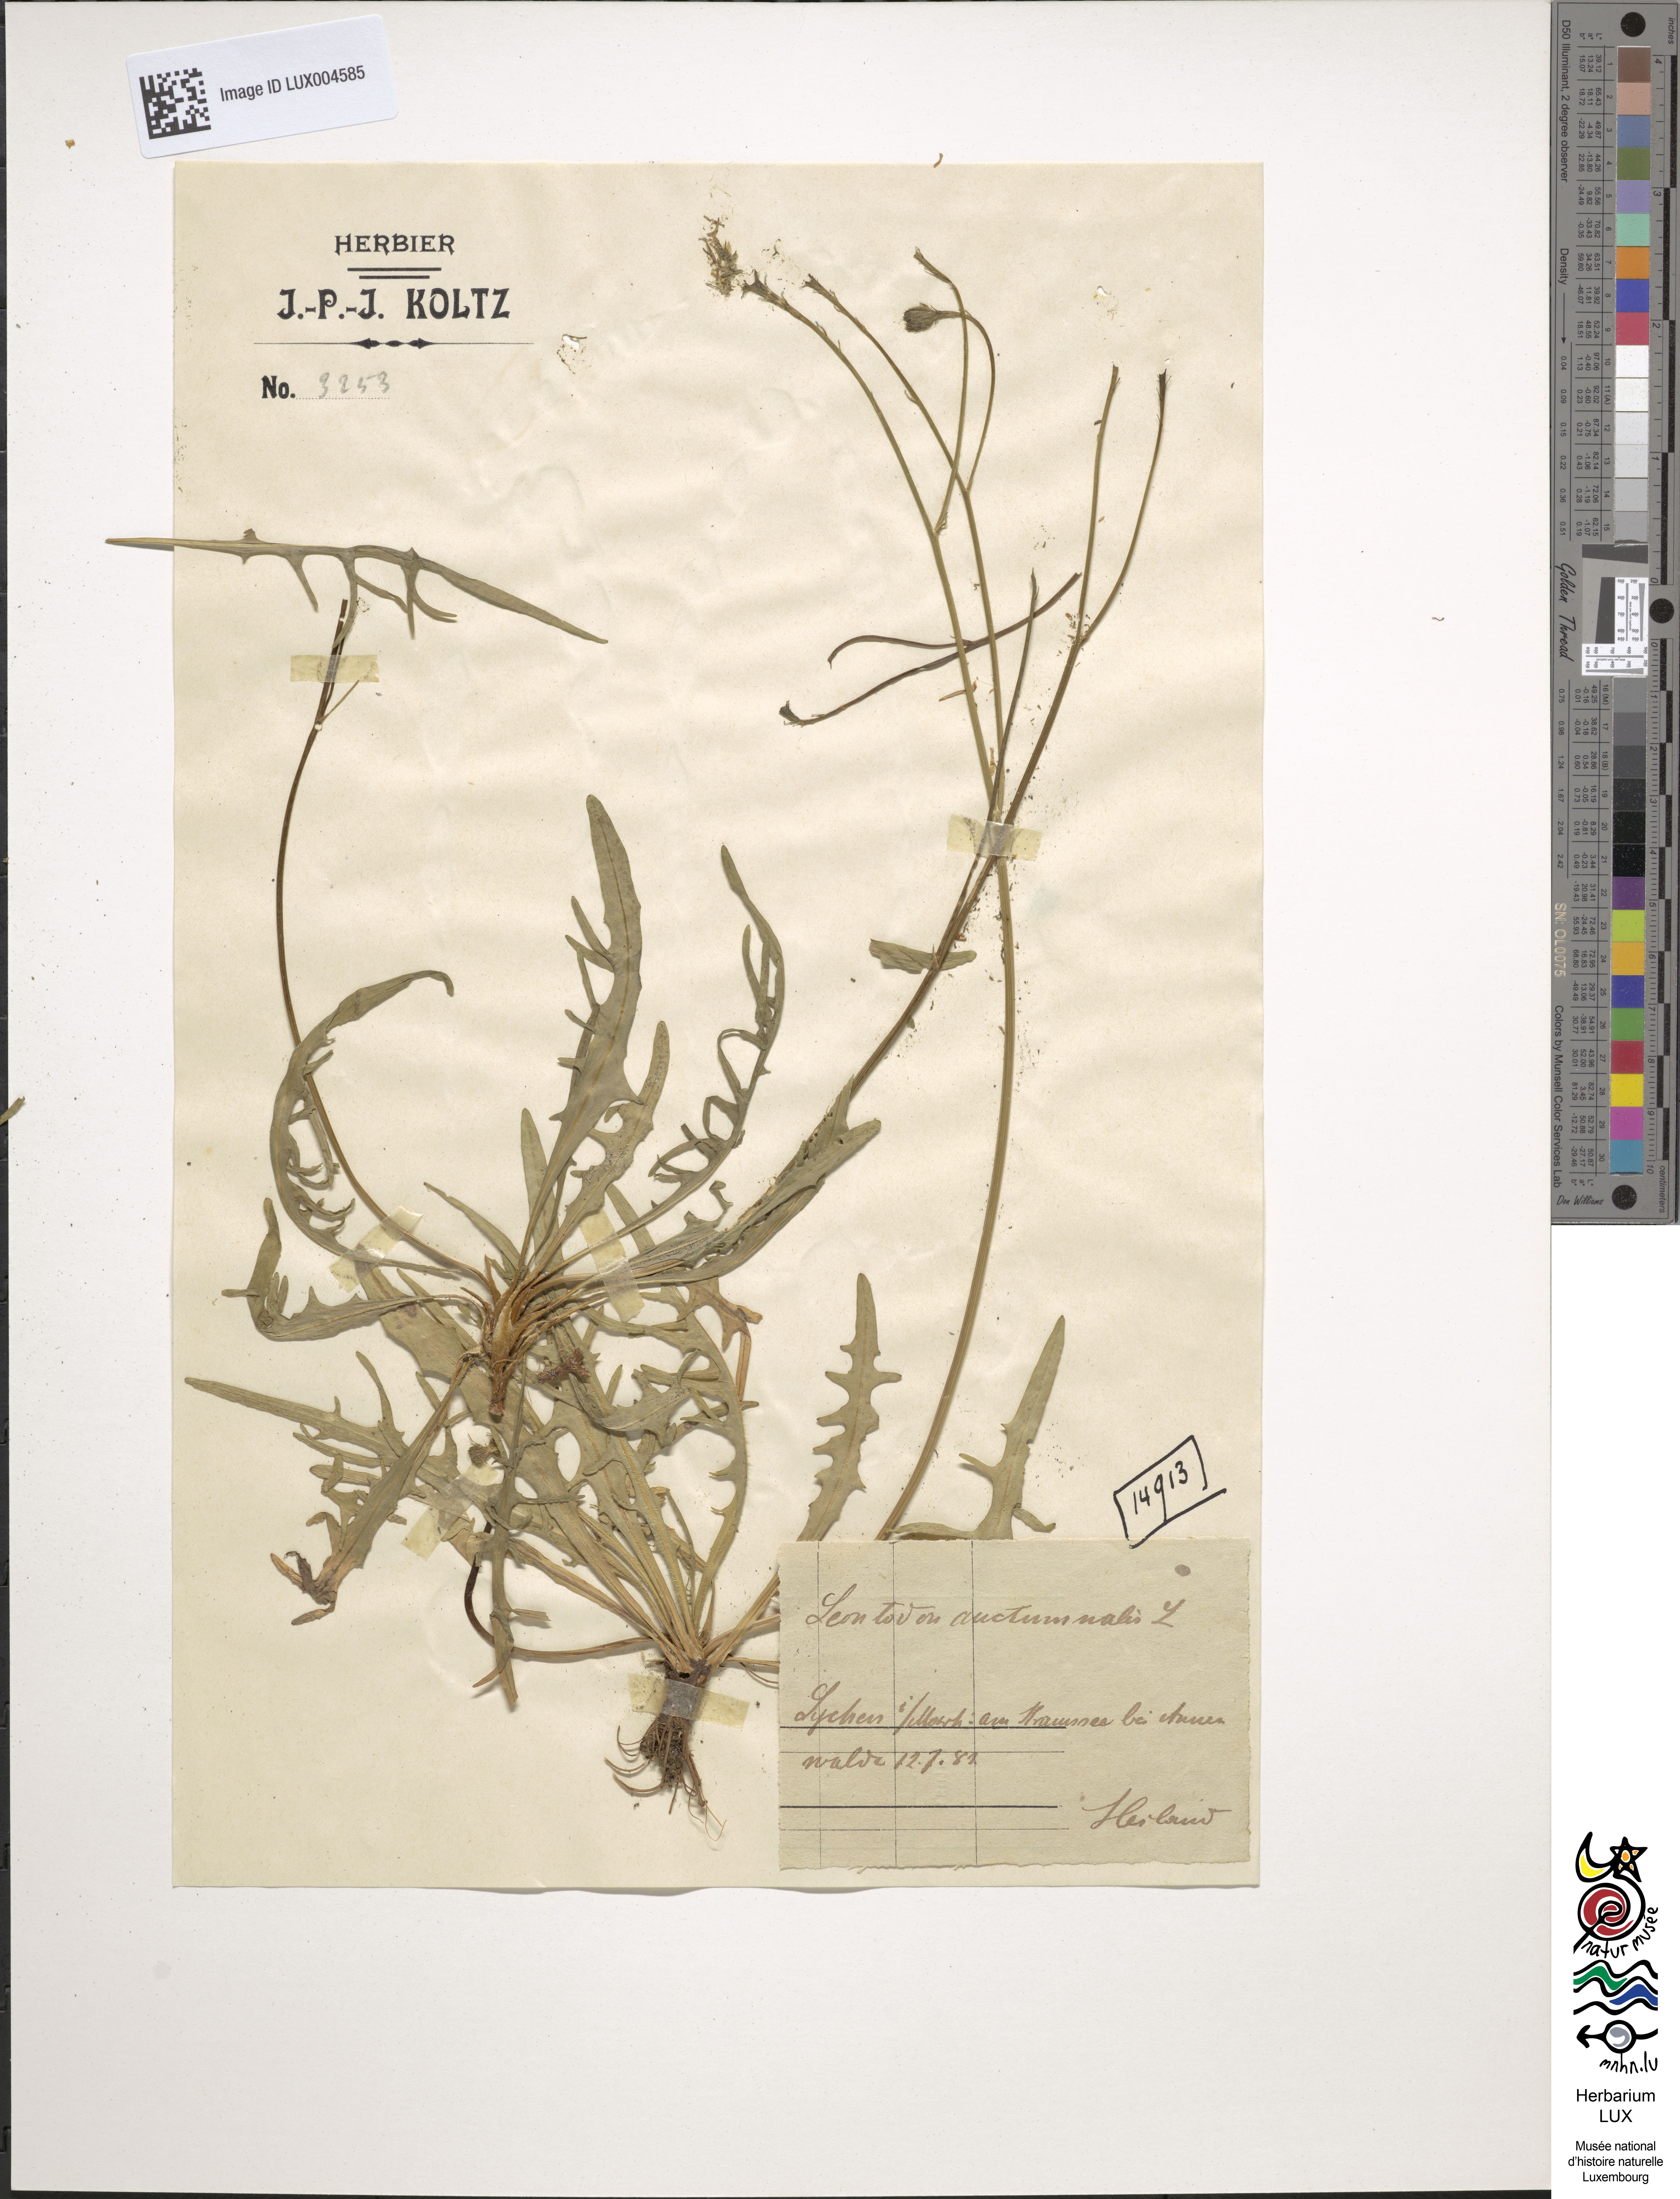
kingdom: Plantae
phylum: Tracheophyta
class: Magnoliopsida
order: Asterales
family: Asteraceae
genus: Scorzoneroides
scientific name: Scorzoneroides autumnalis
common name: Autumn hawkbit
